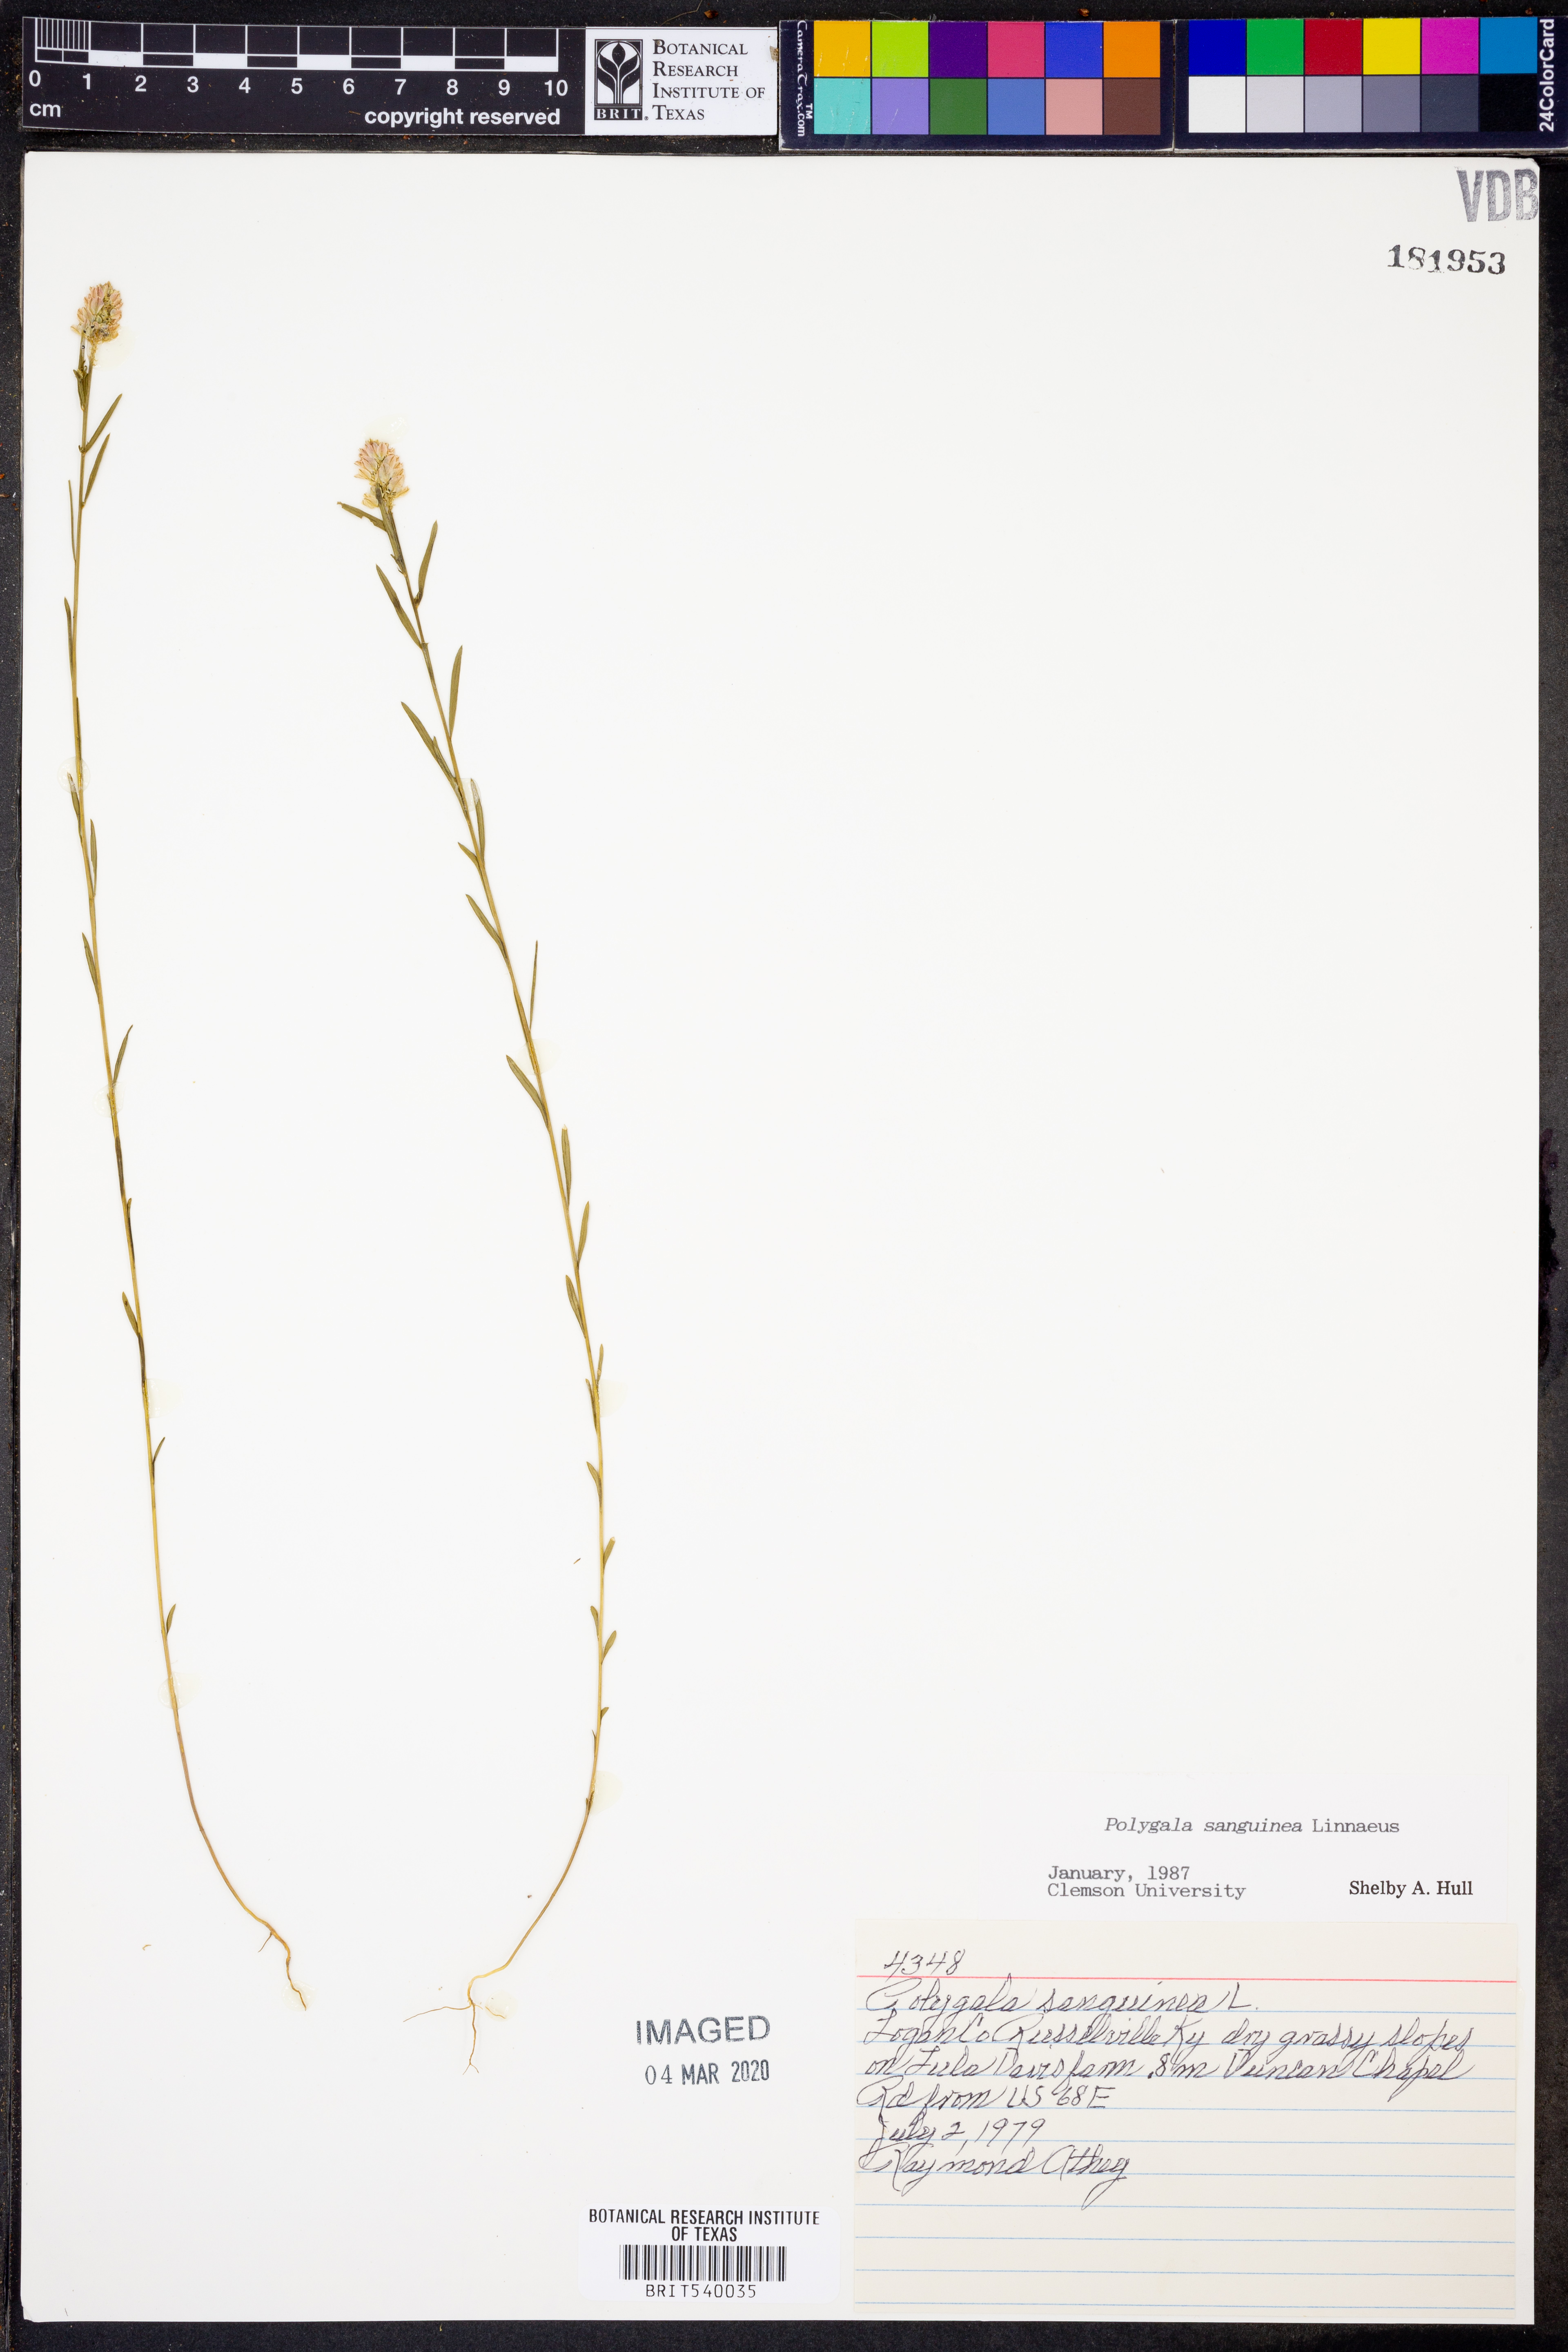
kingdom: Plantae
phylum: Tracheophyta
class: Magnoliopsida
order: Fabales
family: Polygalaceae
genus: Polygala
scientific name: Polygala sanguinea
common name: Blood milkwort
